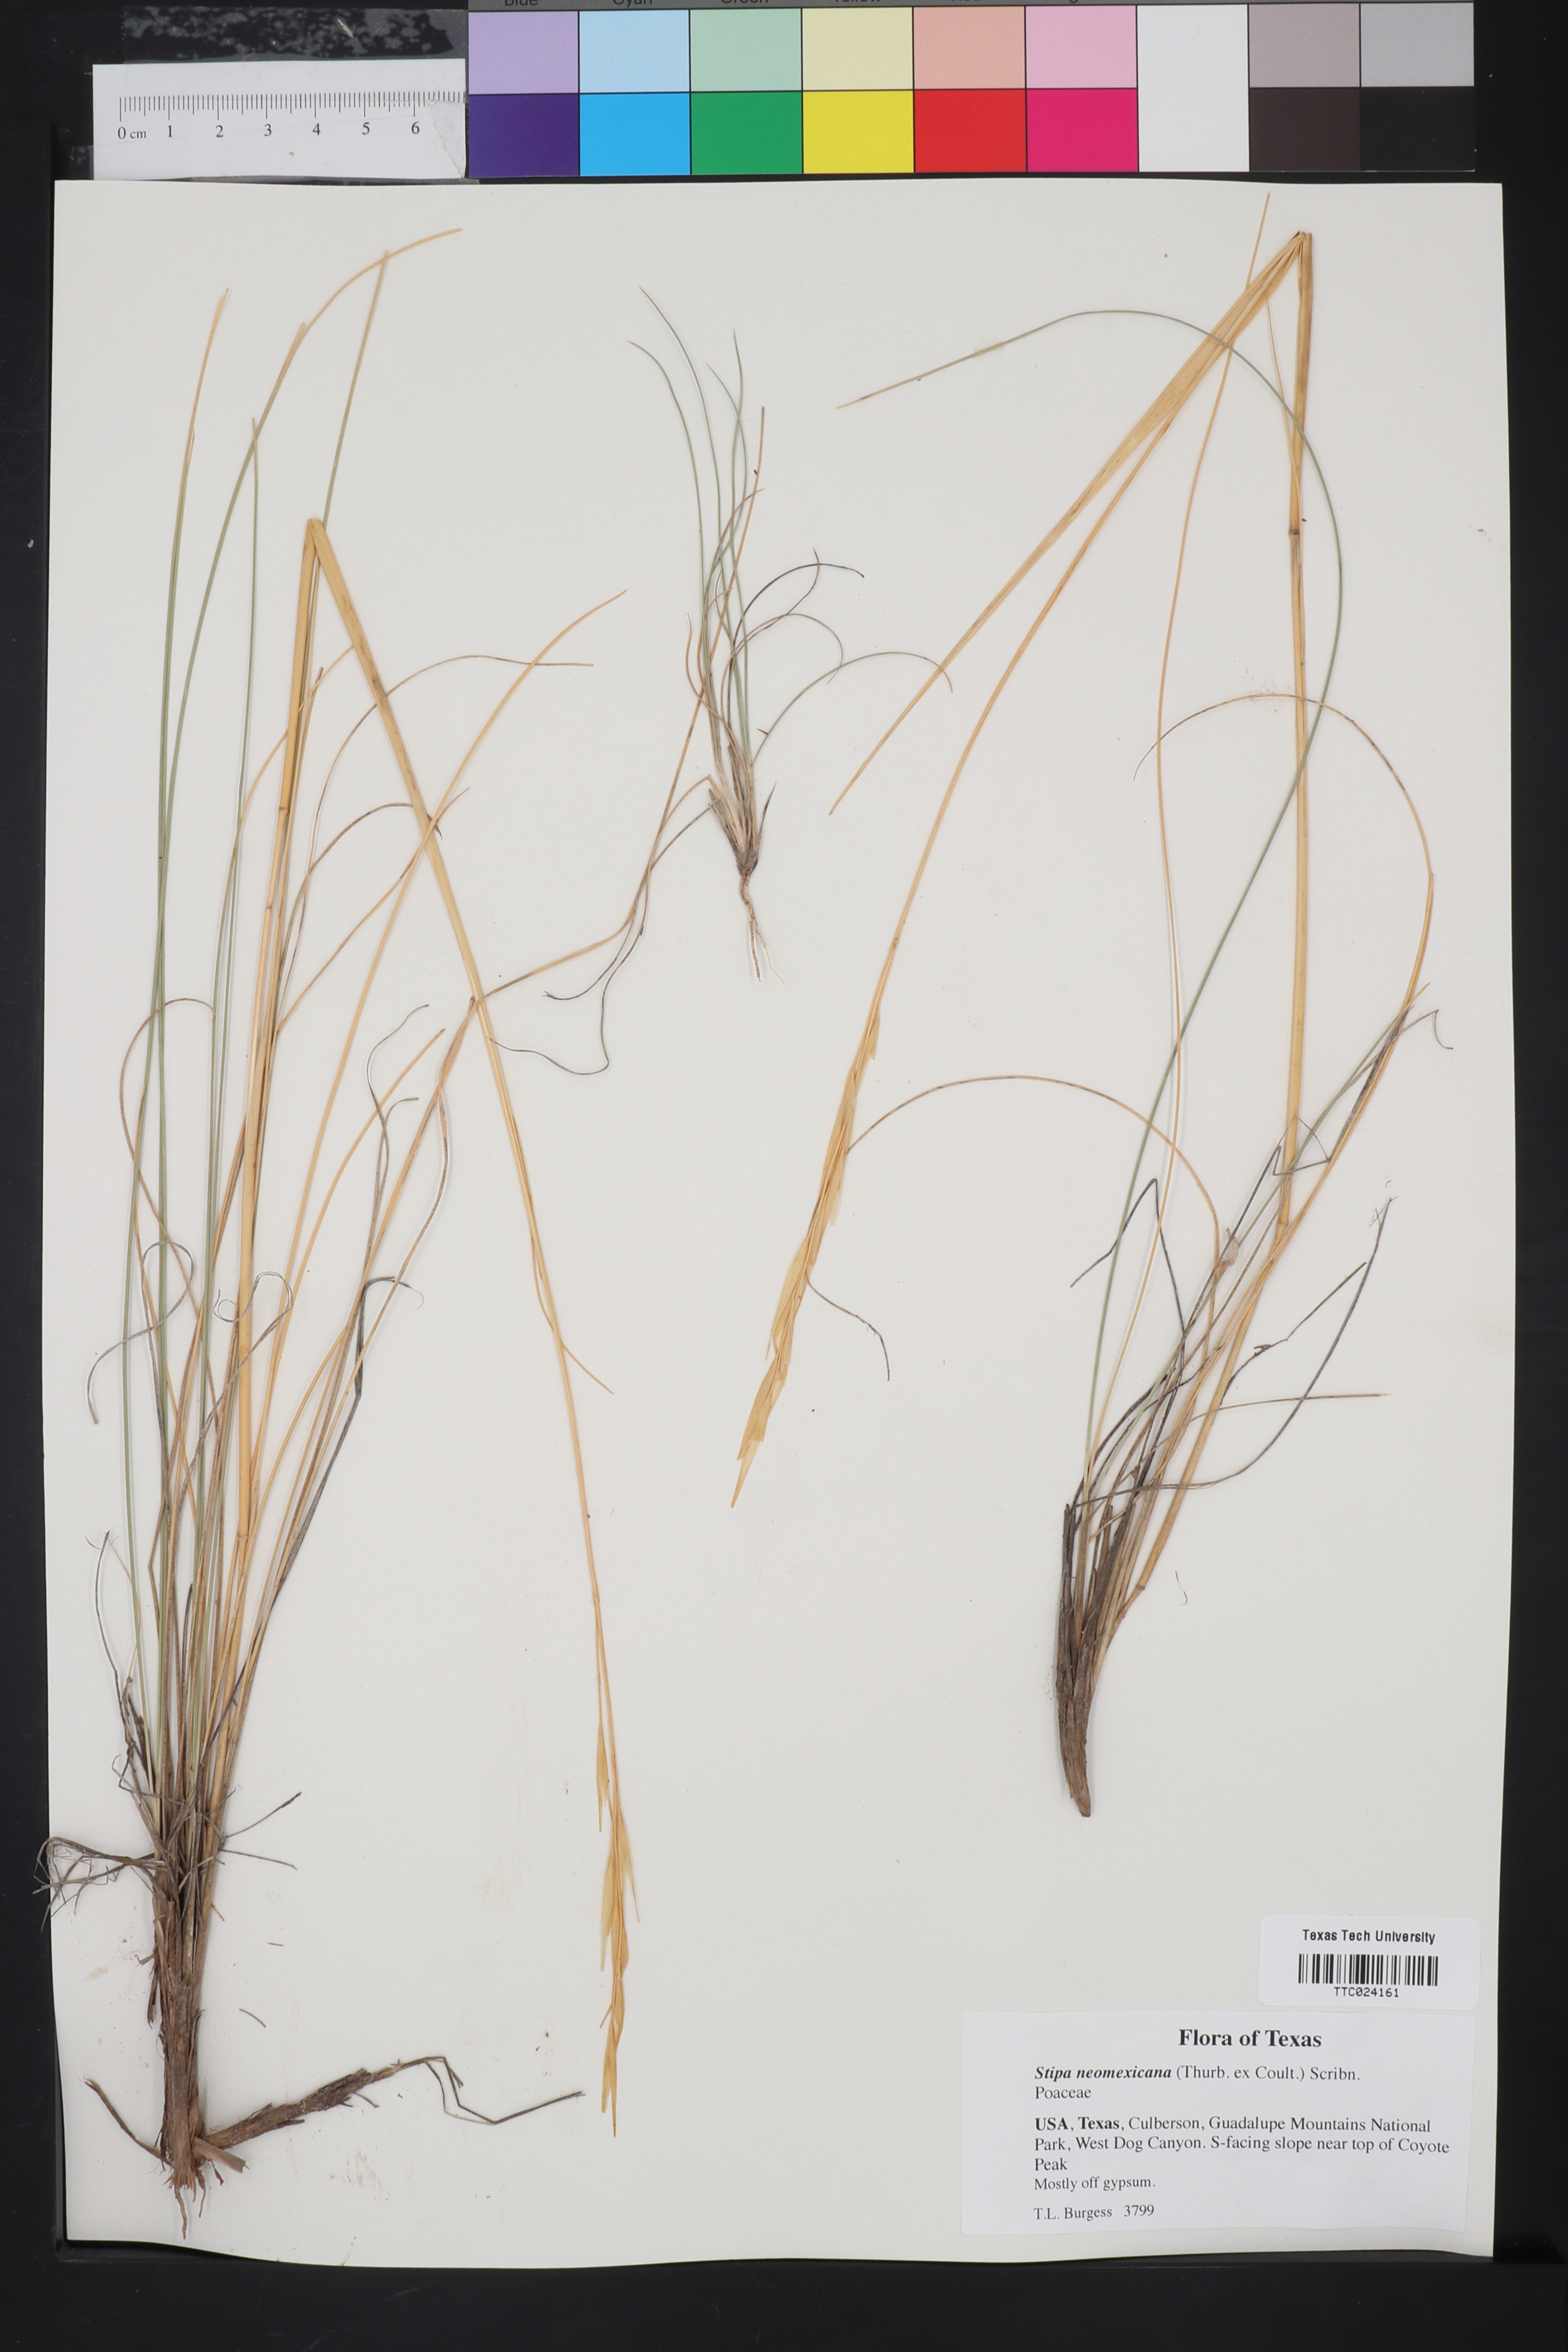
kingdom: Plantae
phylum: Tracheophyta
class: Liliopsida
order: Poales
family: Poaceae
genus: Hesperostipa
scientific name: Hesperostipa neomexicana
